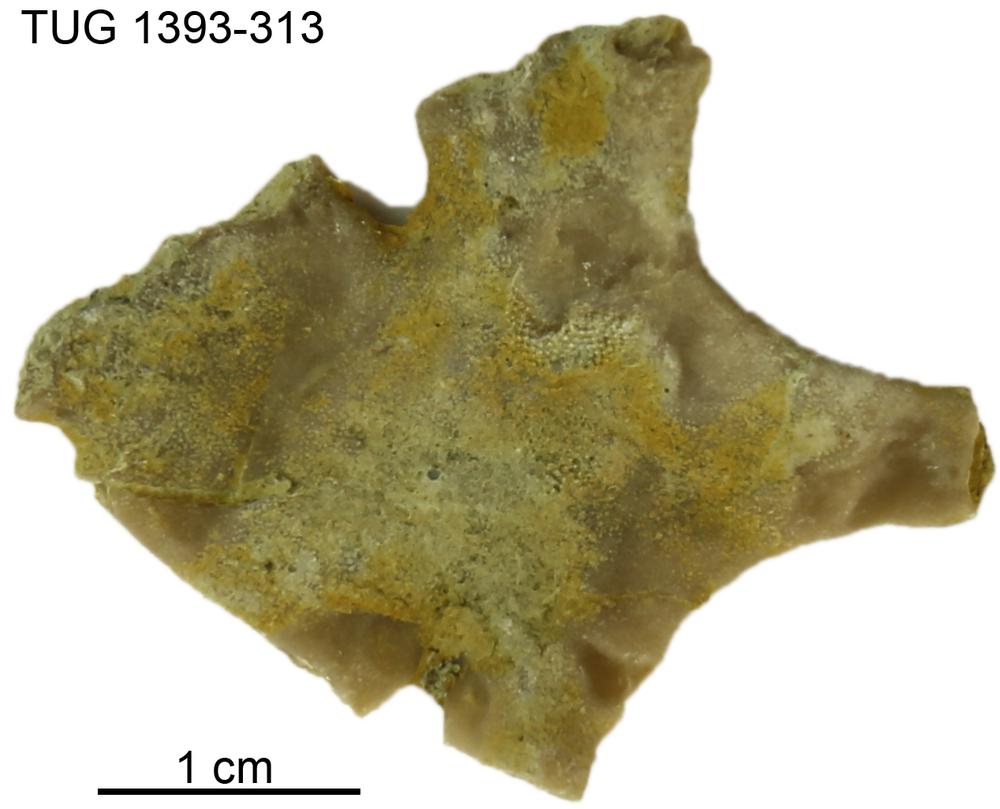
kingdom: Animalia
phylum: Bryozoa
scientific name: Bryozoa
